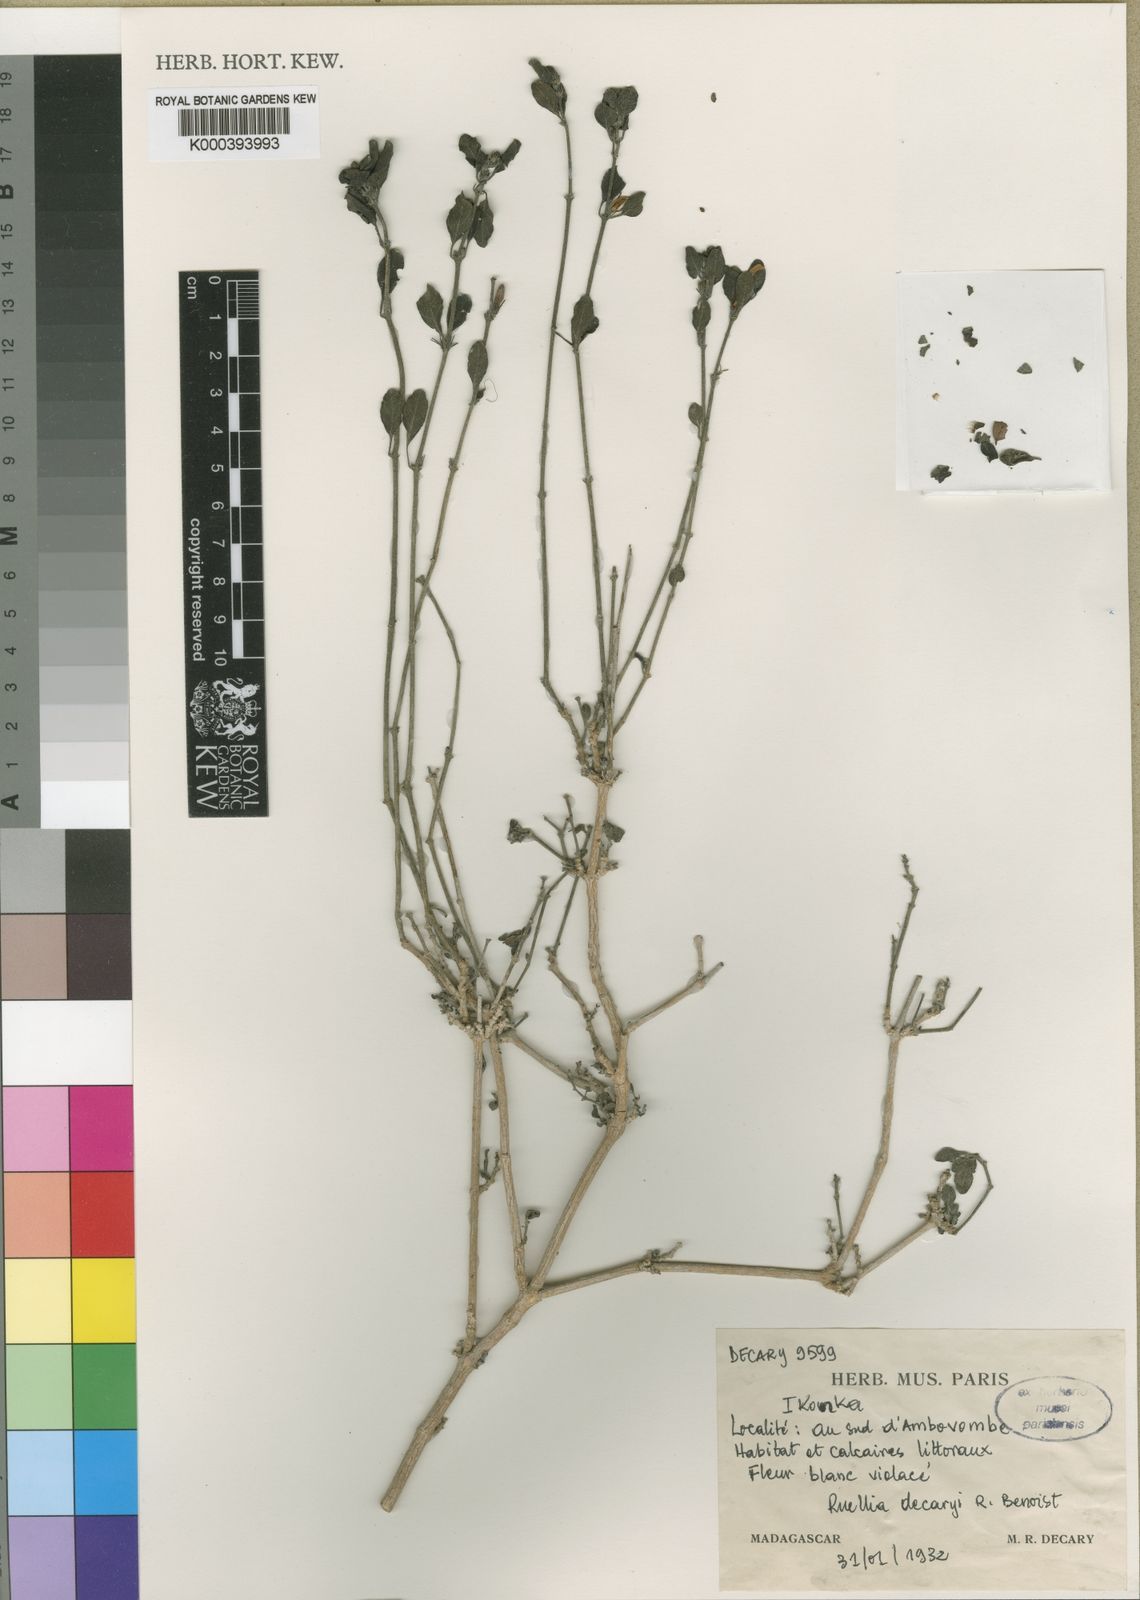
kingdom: Plantae
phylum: Tracheophyta
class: Magnoliopsida
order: Lamiales
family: Acanthaceae
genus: Ruellia
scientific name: Ruellia decaryi
